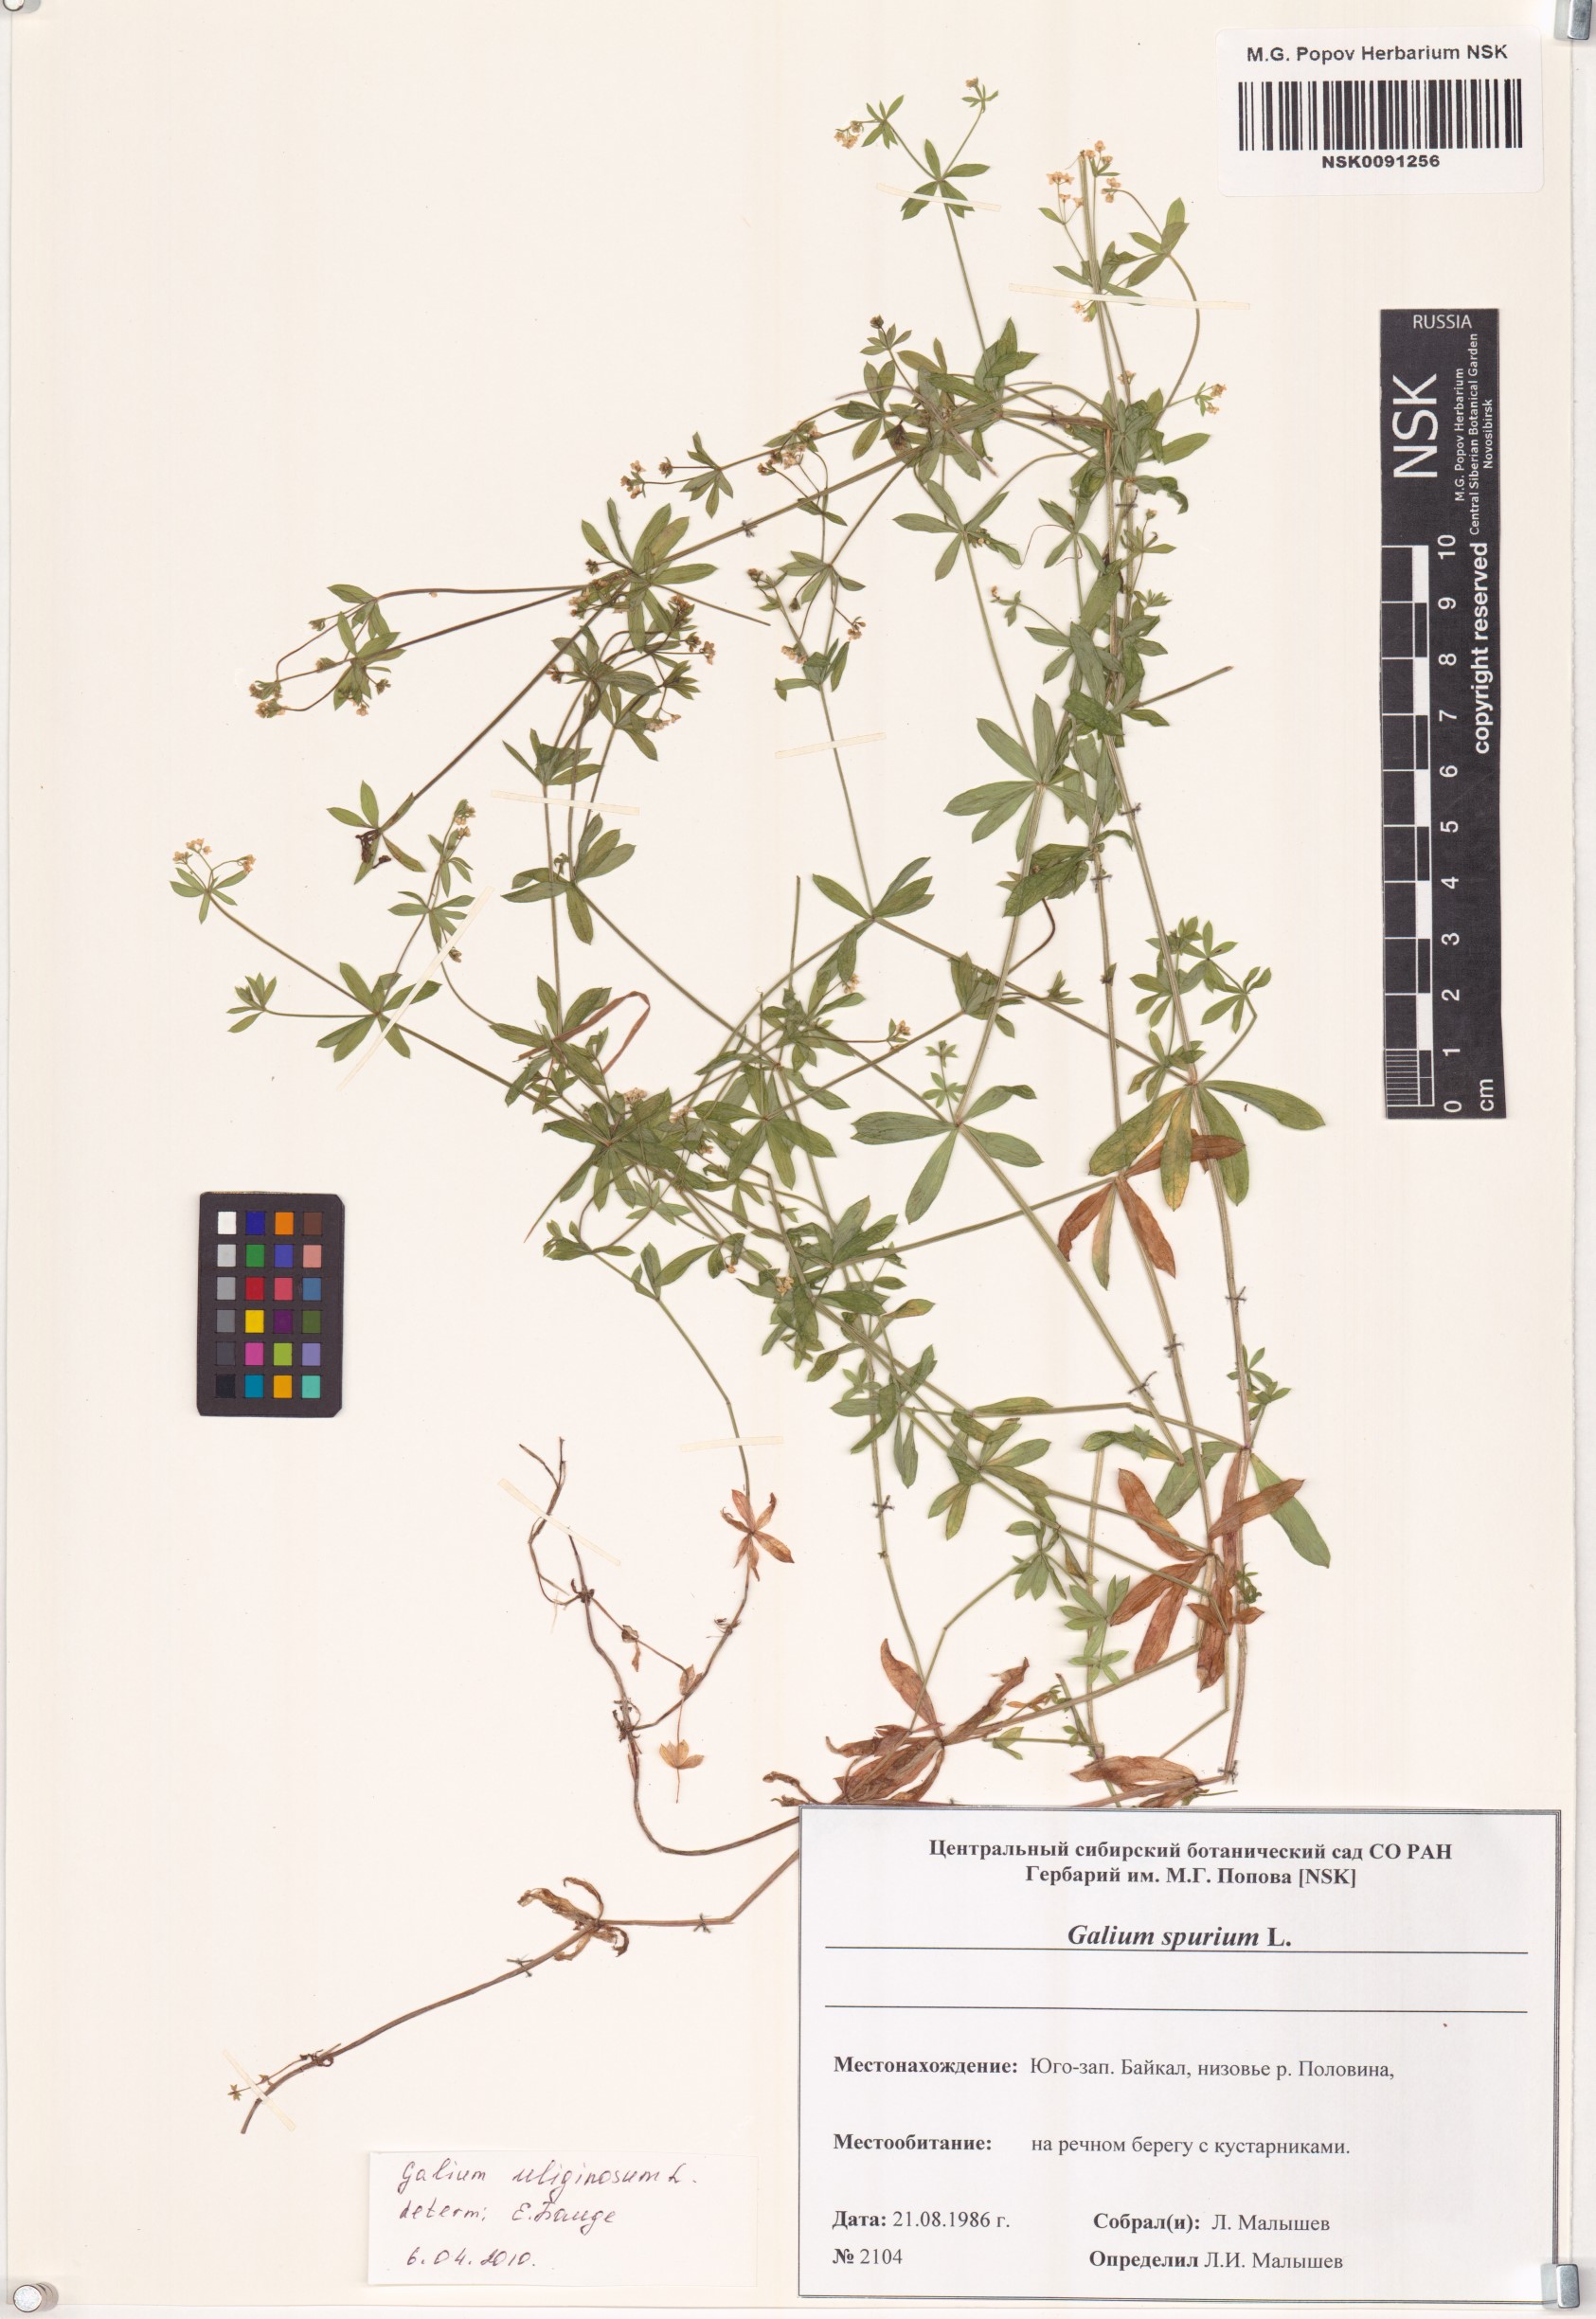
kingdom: Plantae
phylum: Tracheophyta
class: Magnoliopsida
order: Gentianales
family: Rubiaceae
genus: Galium
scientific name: Galium uliginosum
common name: Fen bedstraw
